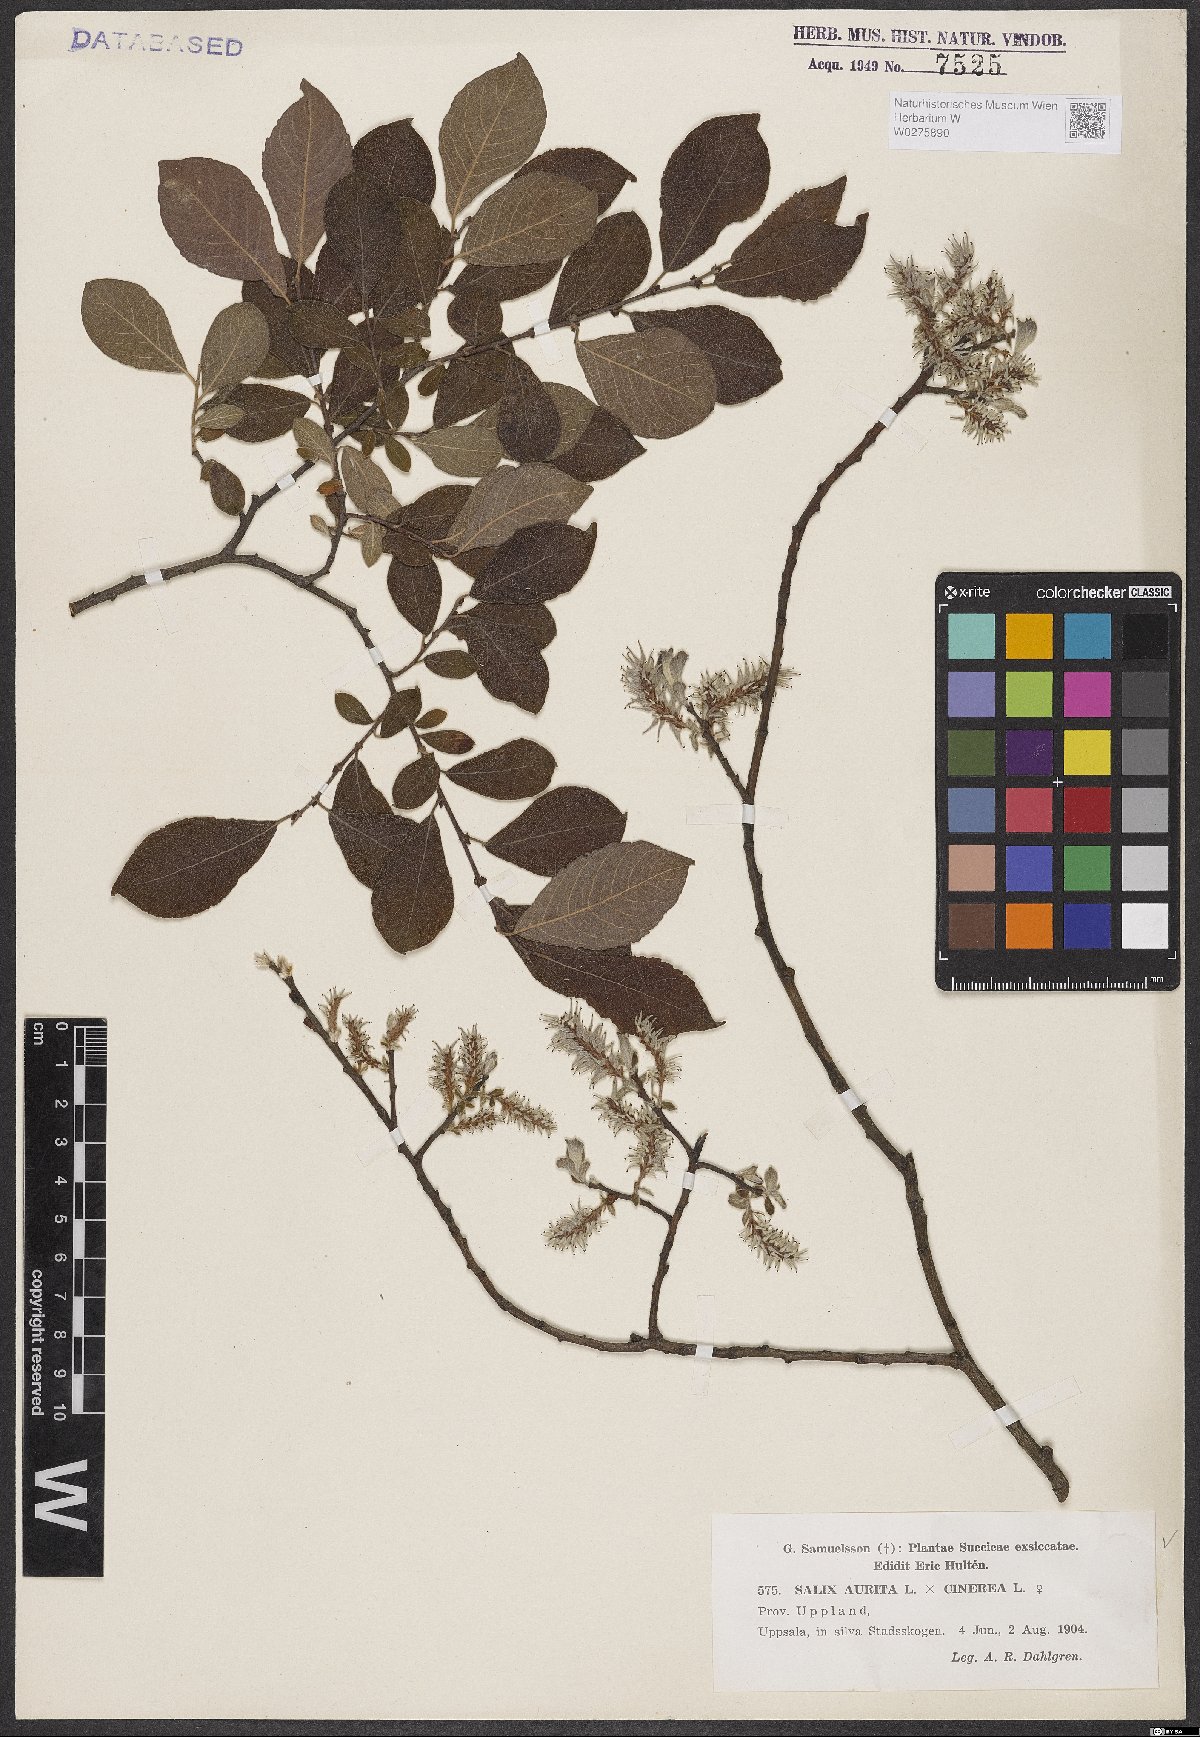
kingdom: Plantae
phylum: Tracheophyta
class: Magnoliopsida
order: Malpighiales
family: Salicaceae
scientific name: Salicaceae
